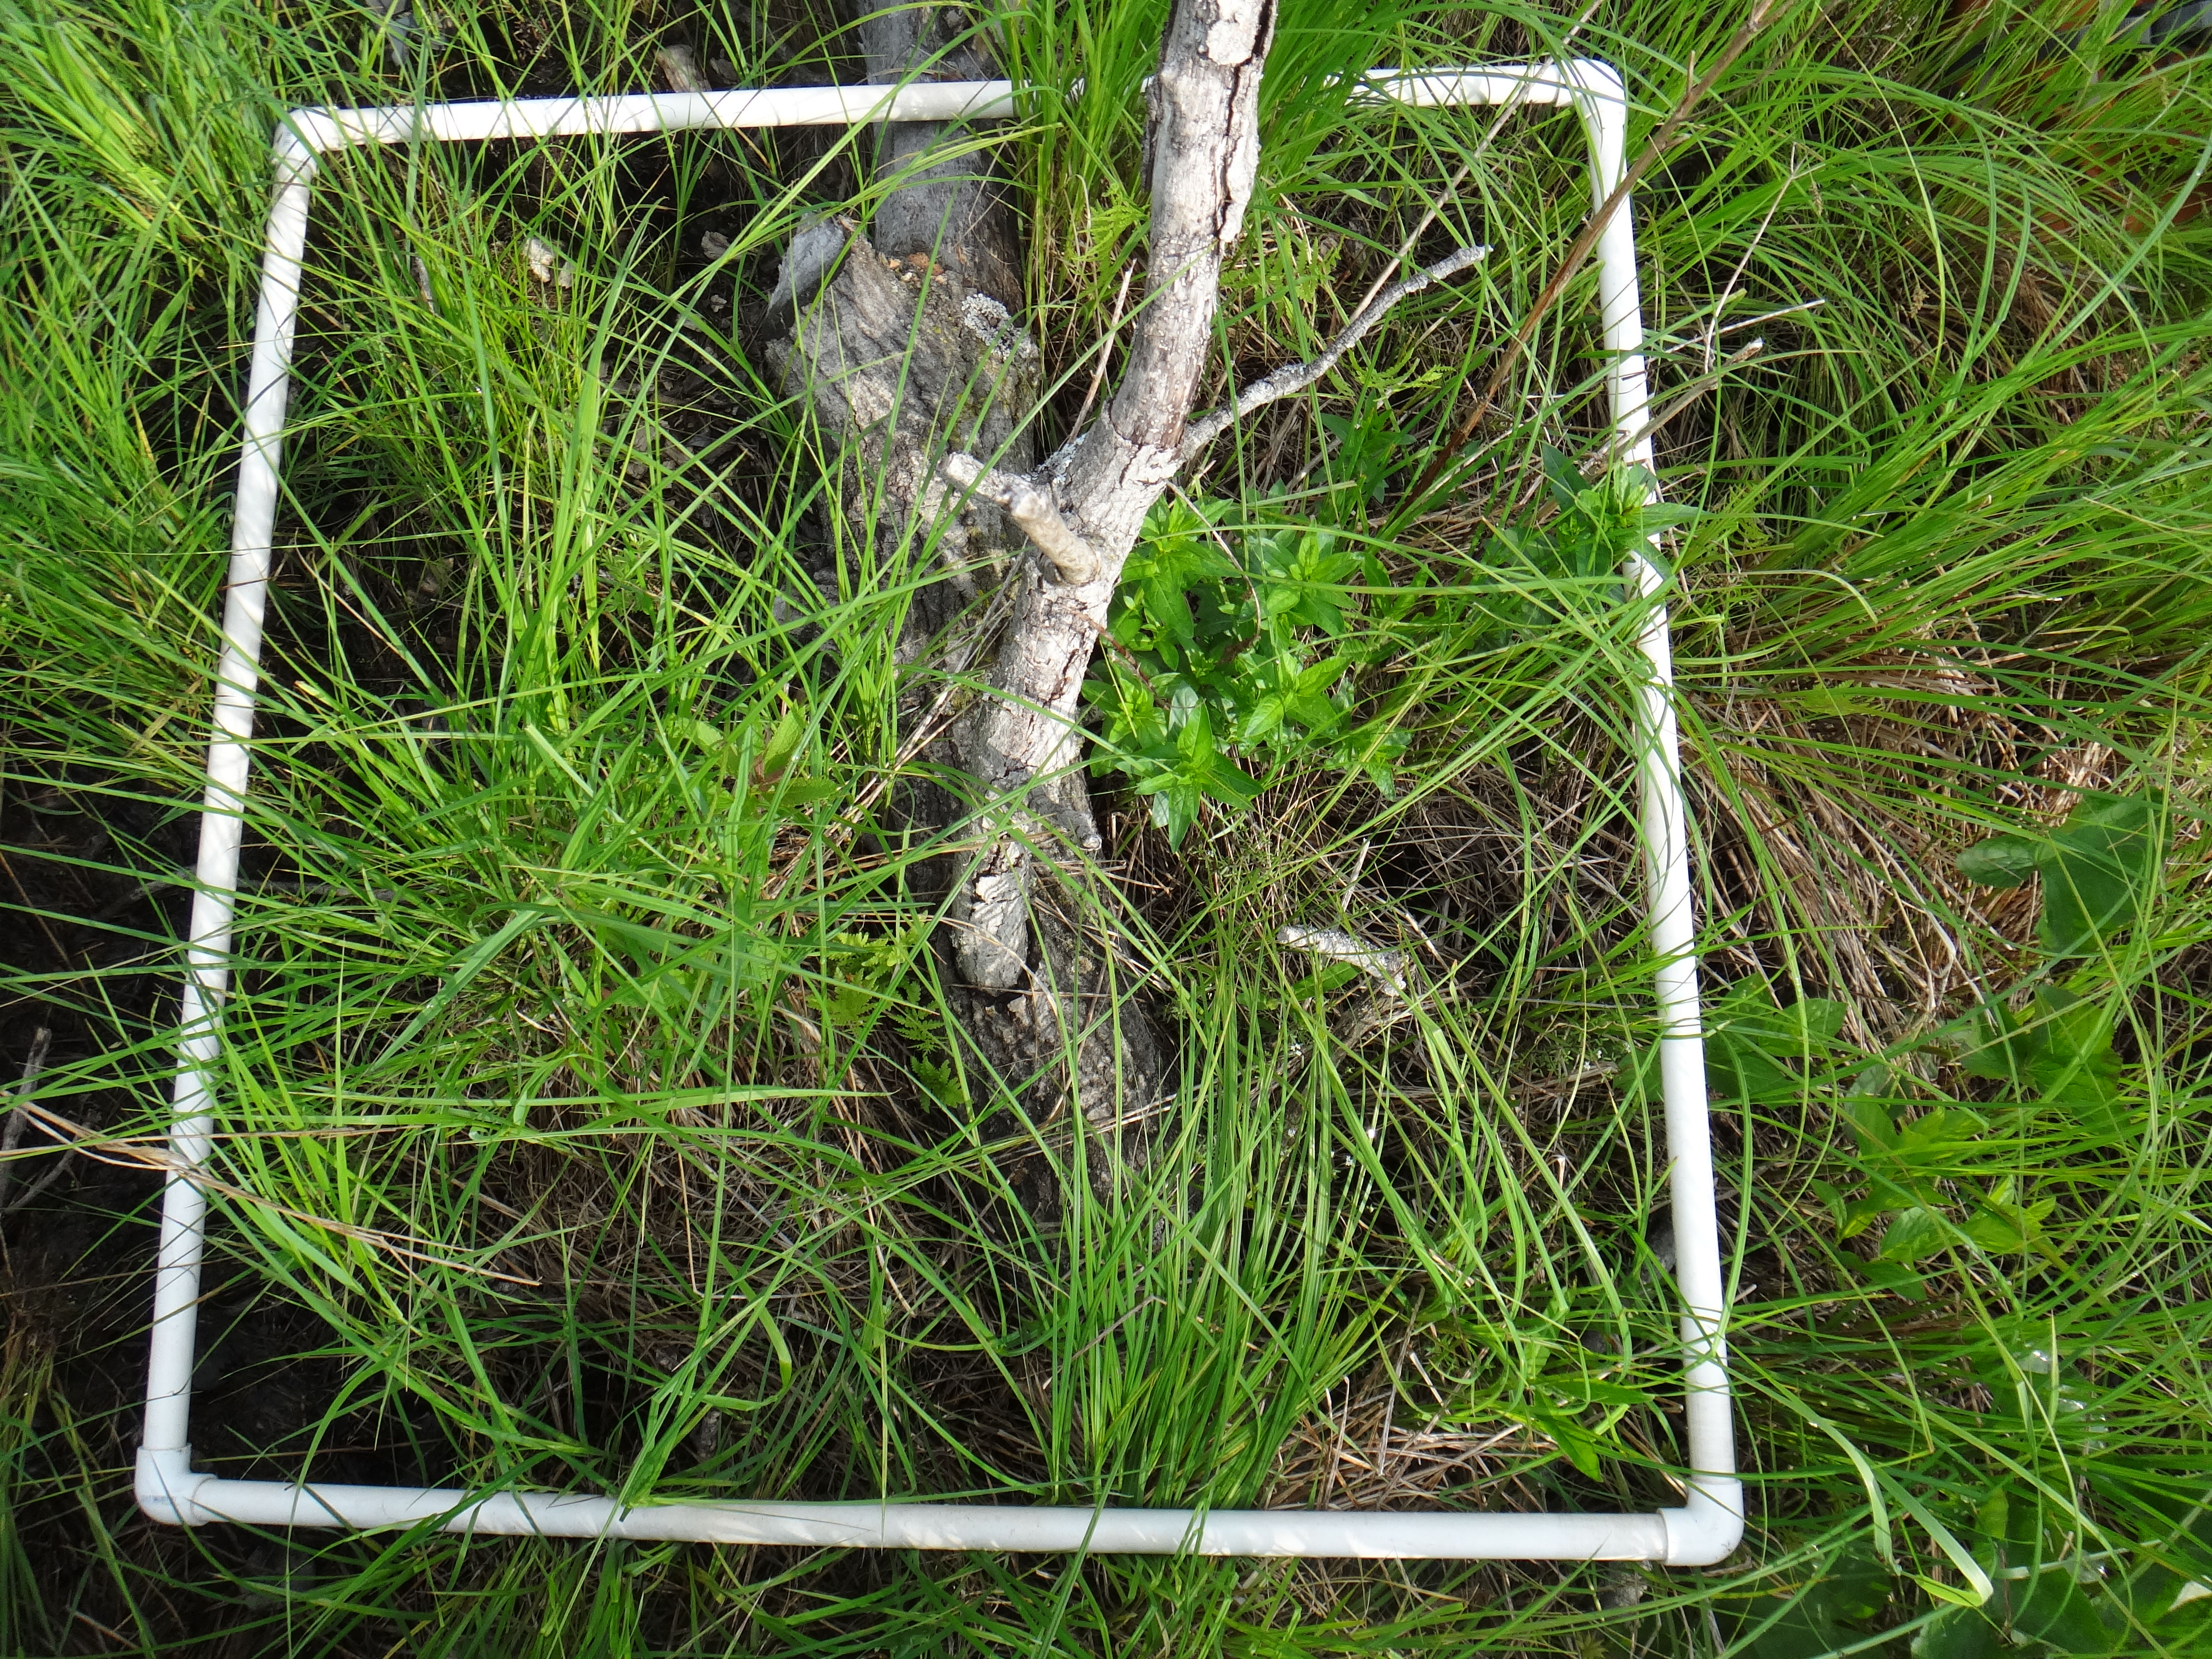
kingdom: Plantae
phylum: Tracheophyta
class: Magnoliopsida
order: Asterales
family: Campanulaceae
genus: Palustricodon
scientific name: Palustricodon aparinoides
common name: Bedstraw bellflower
